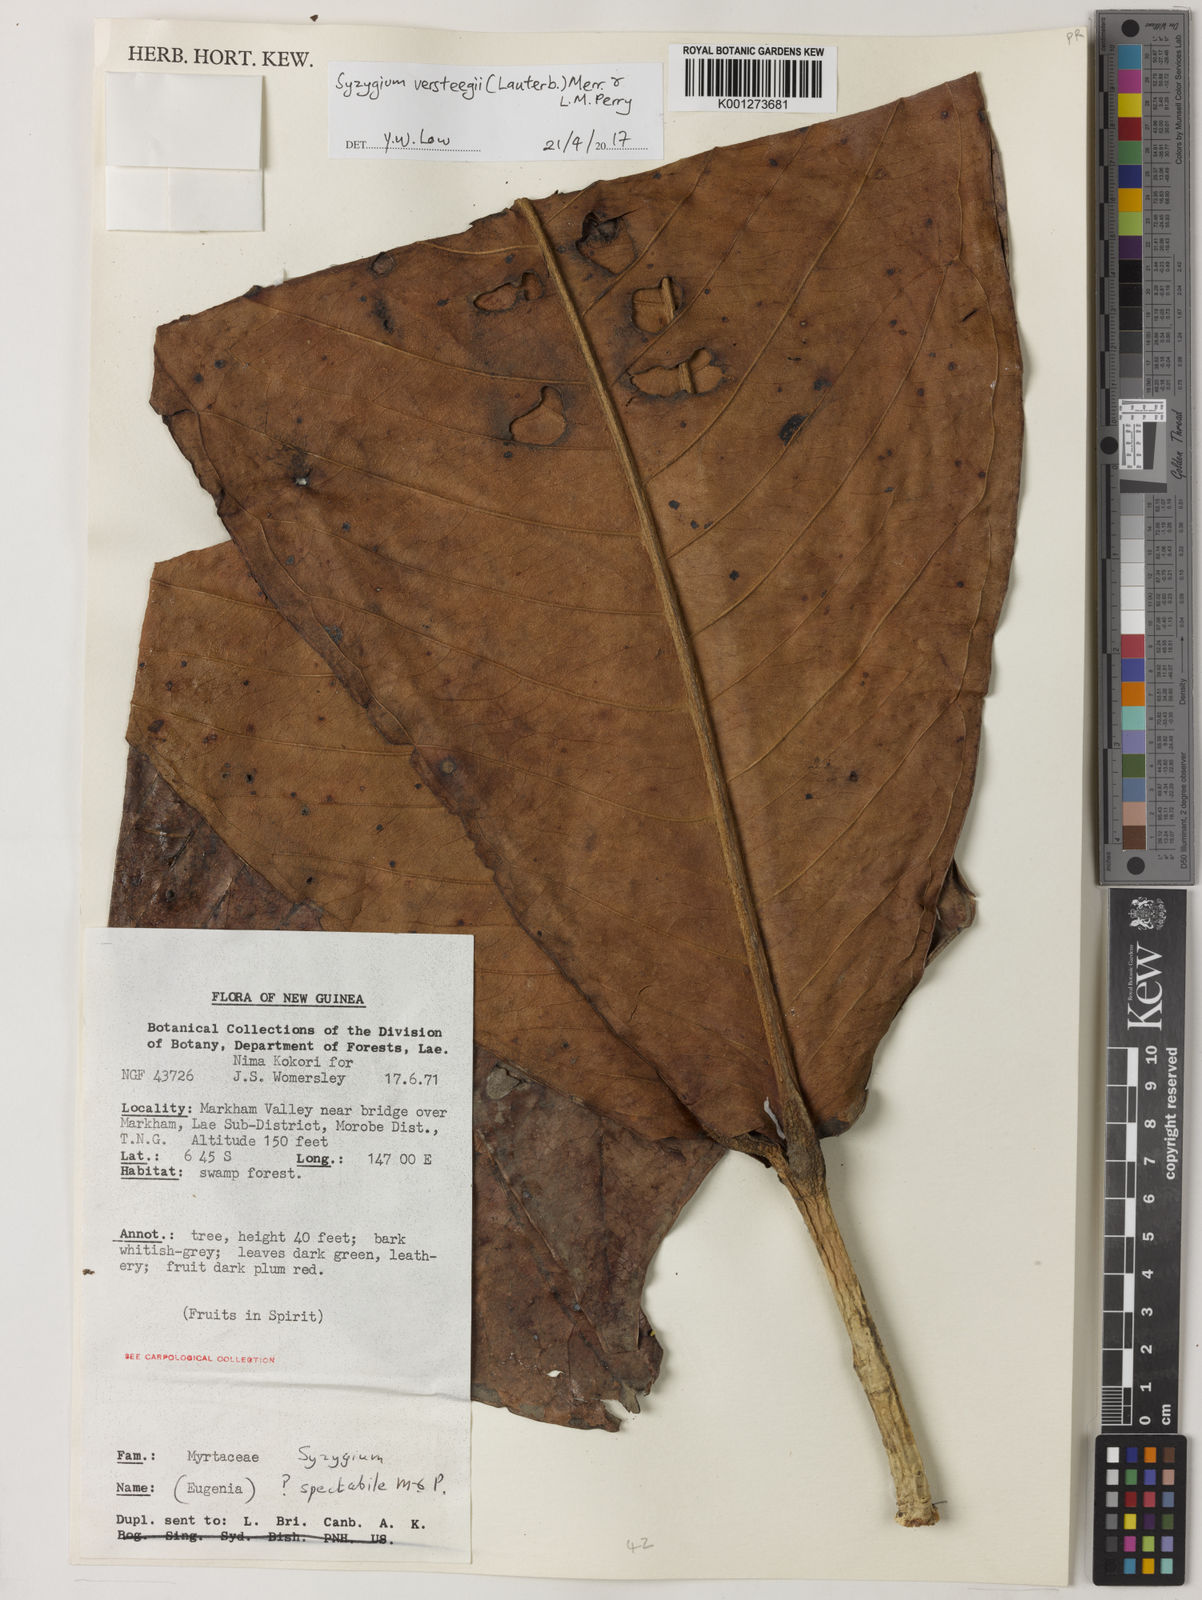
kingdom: Plantae
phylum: Tracheophyta
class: Magnoliopsida
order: Myrtales
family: Myrtaceae
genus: Syzygium
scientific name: Syzygium versteegii
